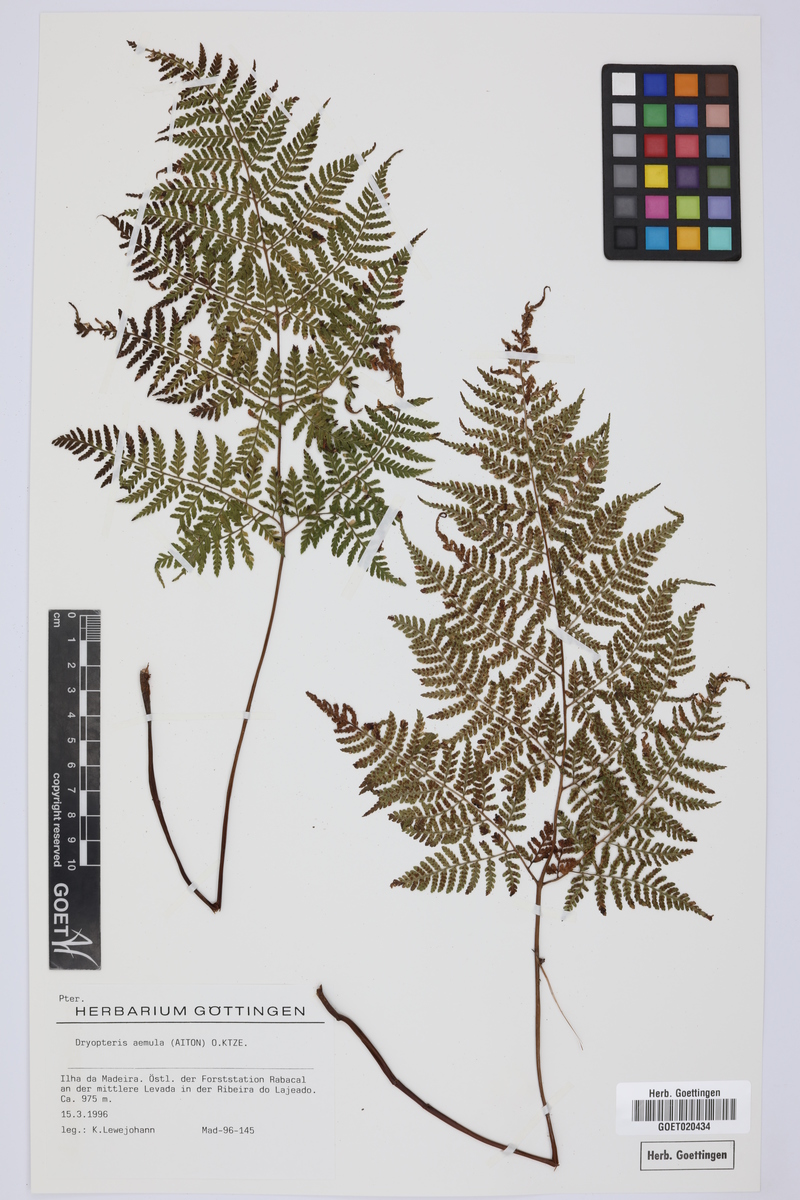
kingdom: Plantae
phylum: Tracheophyta
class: Polypodiopsida
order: Polypodiales
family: Dryopteridaceae
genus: Dryopteris
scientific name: Dryopteris aemula
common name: Hay-scented buckler-fern
